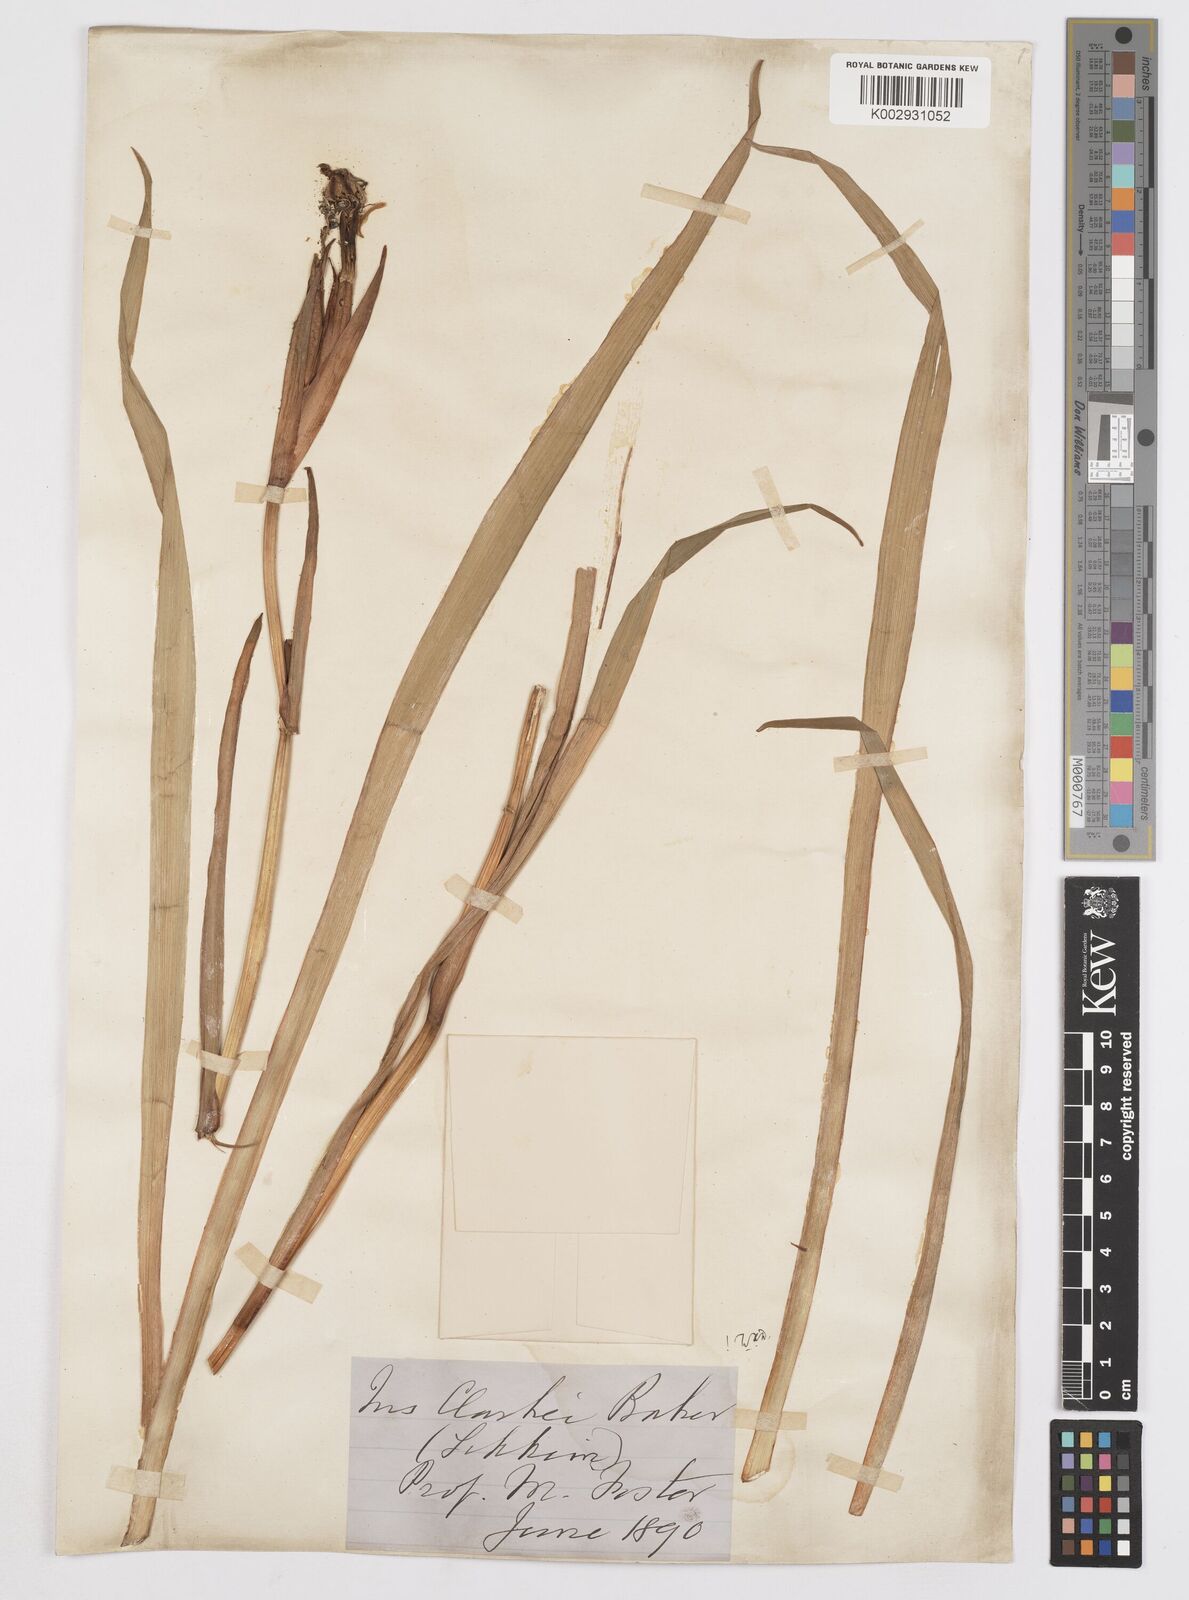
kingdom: Plantae
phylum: Tracheophyta
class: Liliopsida
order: Asparagales
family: Iridaceae
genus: Iris
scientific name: Iris clarkei
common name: Tibet iris
